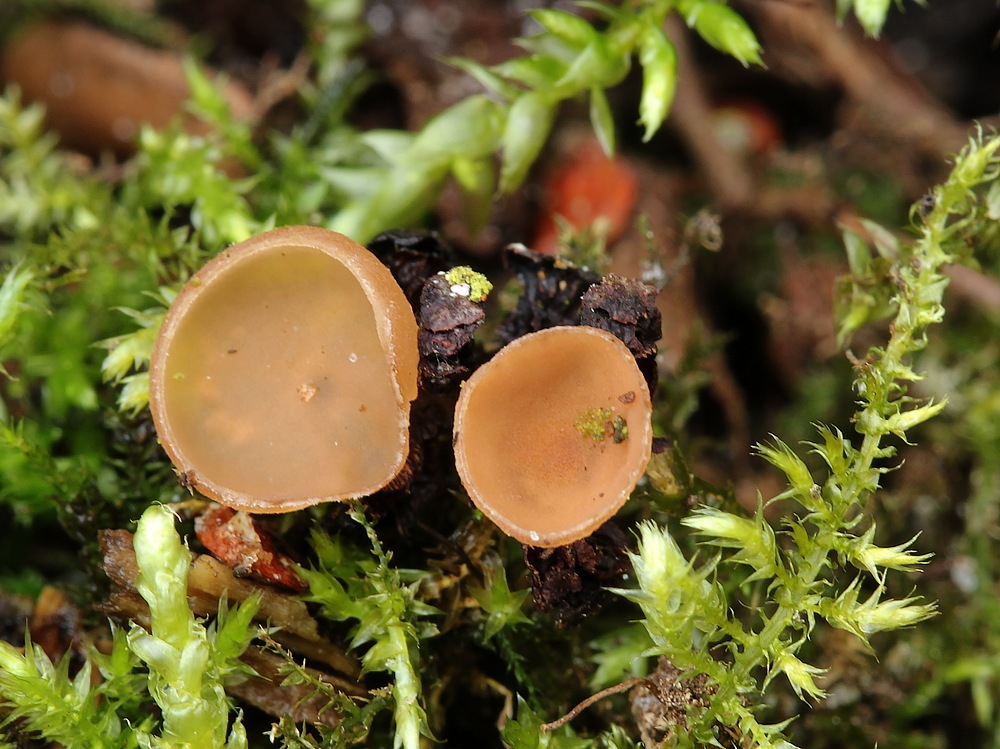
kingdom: Fungi
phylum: Ascomycota
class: Leotiomycetes
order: Helotiales
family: Sclerotiniaceae
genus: Ciboria
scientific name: Ciboria amentacea
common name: ellerakle-knoldskive
